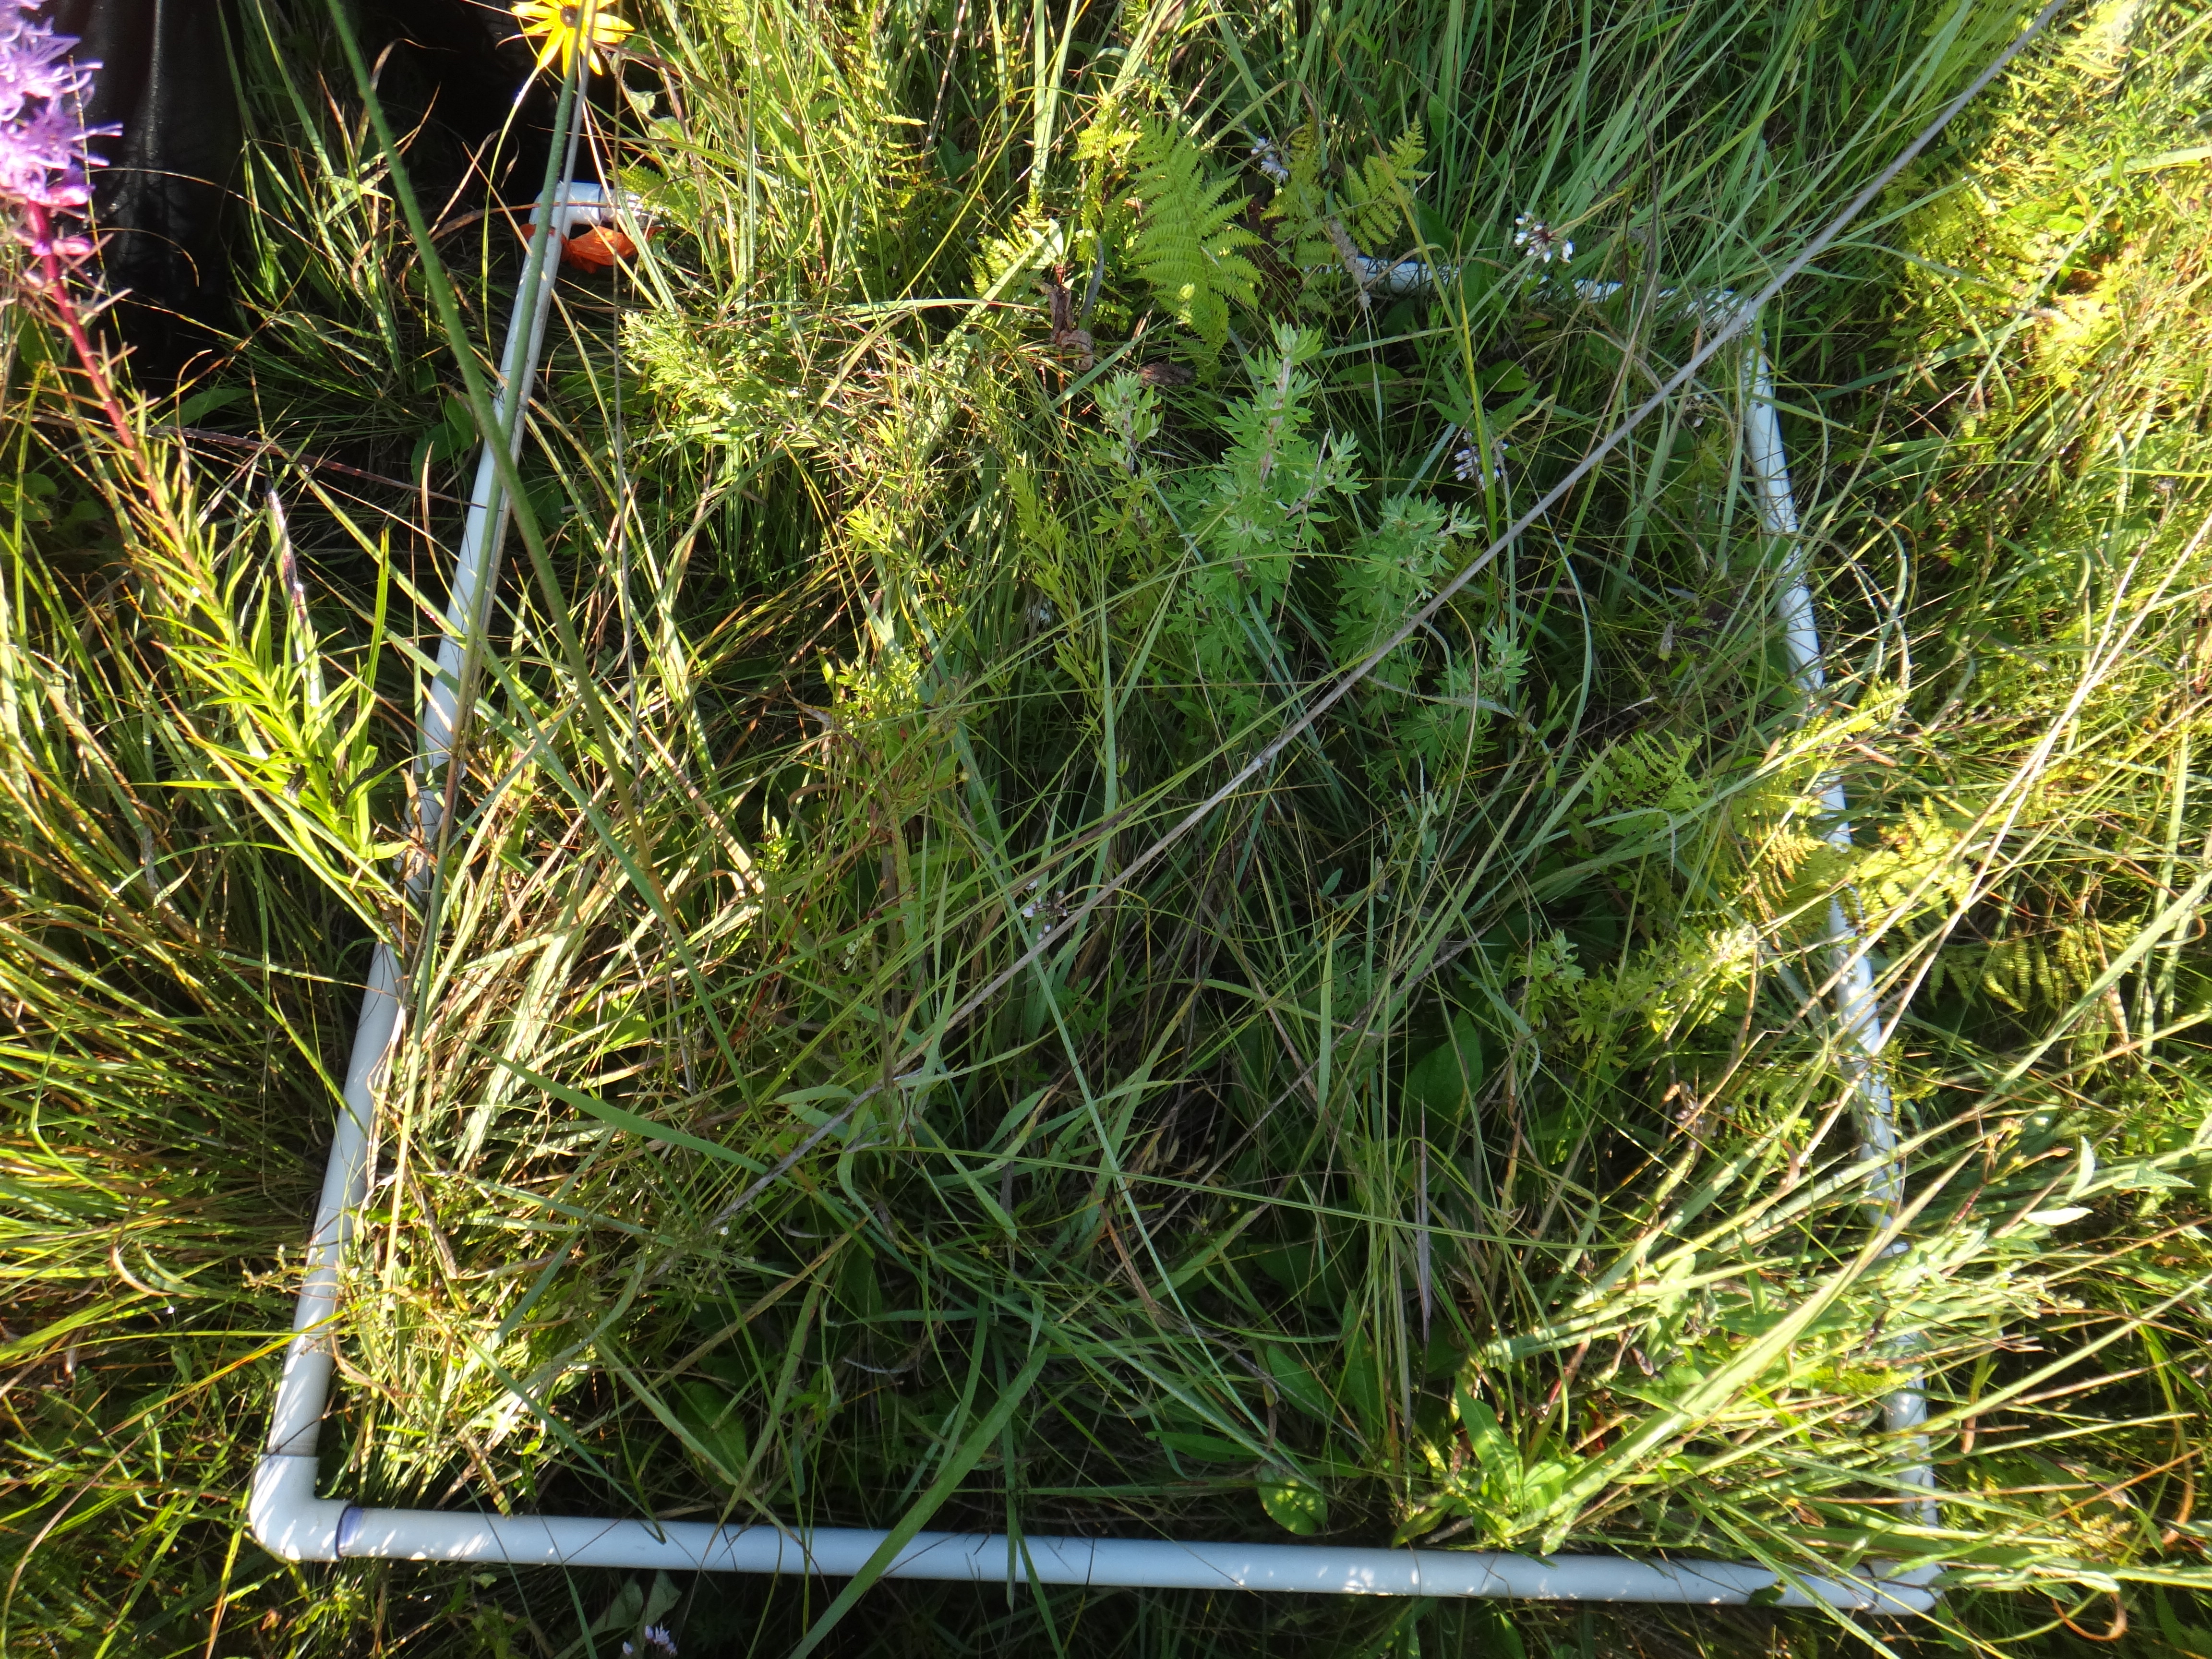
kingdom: Plantae
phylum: Tracheophyta
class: Magnoliopsida
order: Gentianales
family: Rubiaceae
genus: Galium
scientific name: Galium boreale
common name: Northern bedstraw
